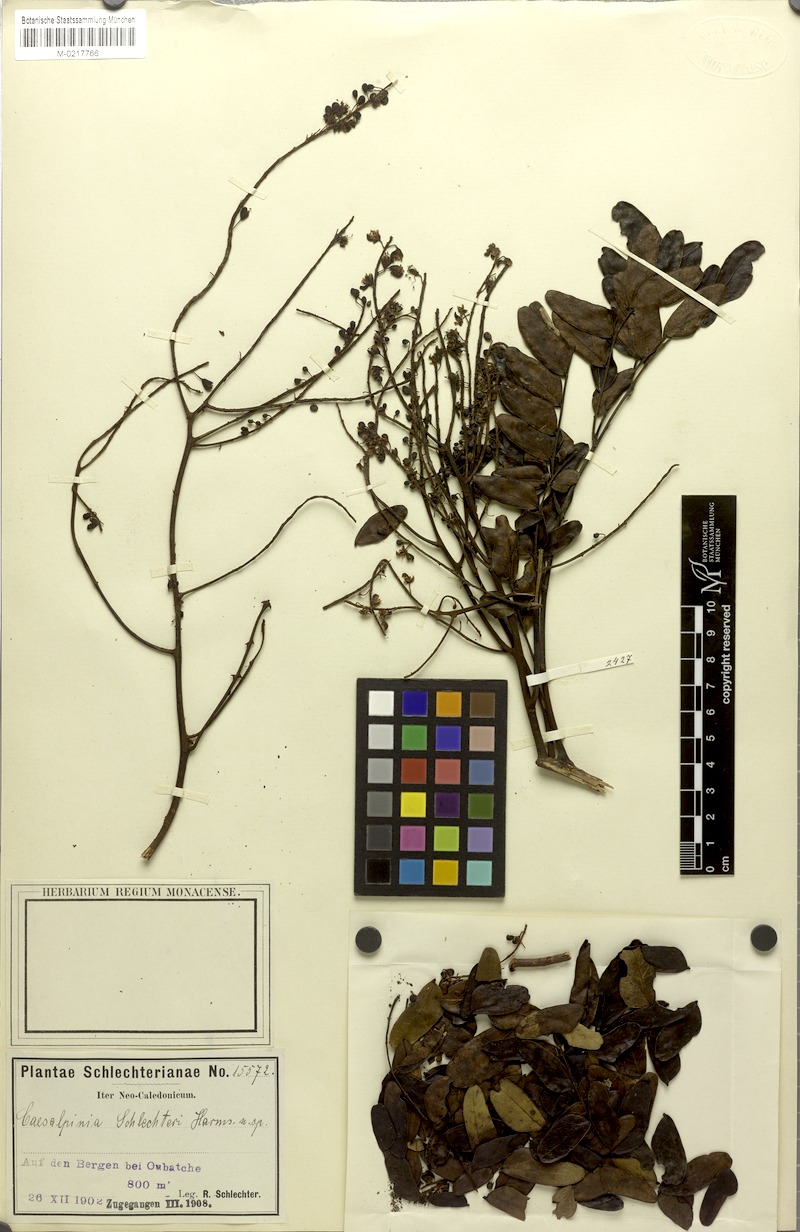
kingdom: Plantae
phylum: Tracheophyta
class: Magnoliopsida
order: Fabales
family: Fabaceae
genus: Mezoneuron
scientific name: Mezoneuron schlechteri
